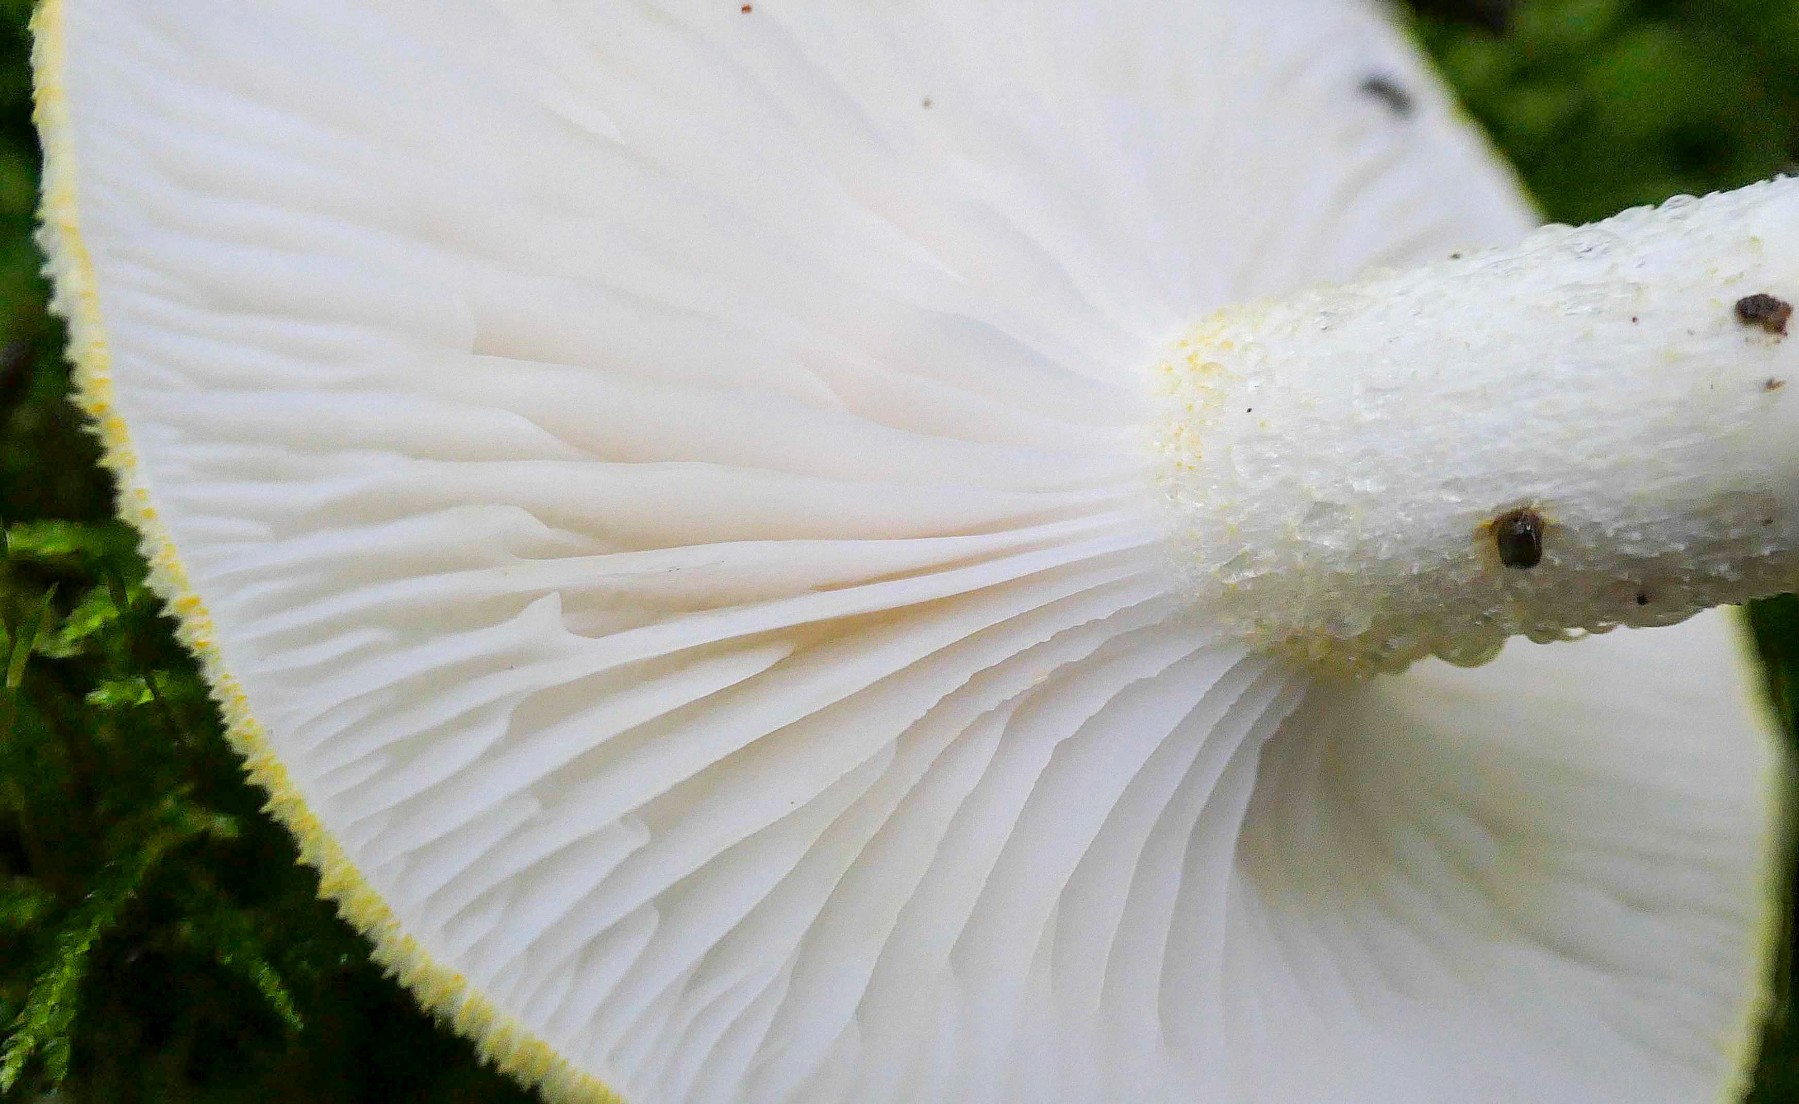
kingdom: Fungi
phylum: Basidiomycota
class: Agaricomycetes
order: Agaricales
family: Hygrophoraceae
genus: Hygrophorus
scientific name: Hygrophorus chrysodon
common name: gulfnugget sneglehat
